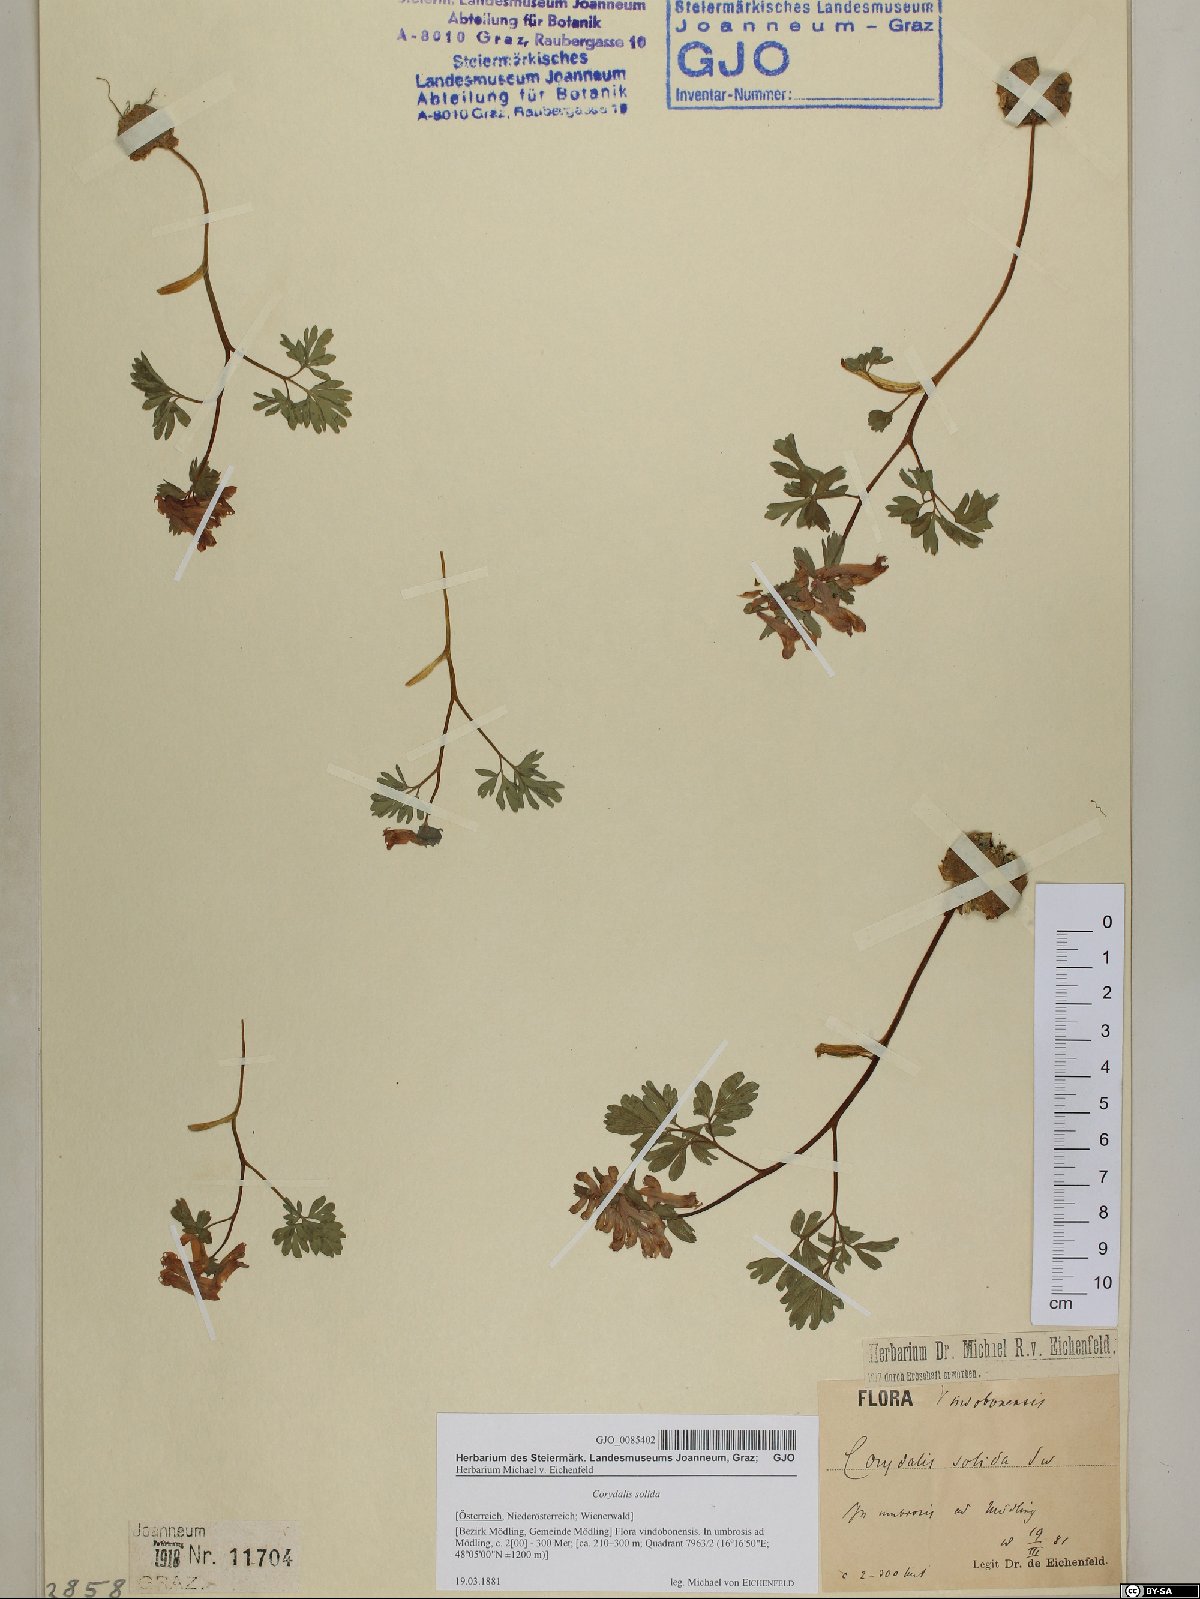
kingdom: Plantae
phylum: Tracheophyta
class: Magnoliopsida
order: Ranunculales
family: Papaveraceae
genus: Corydalis
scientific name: Corydalis solida
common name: Bird-in-a-bush
